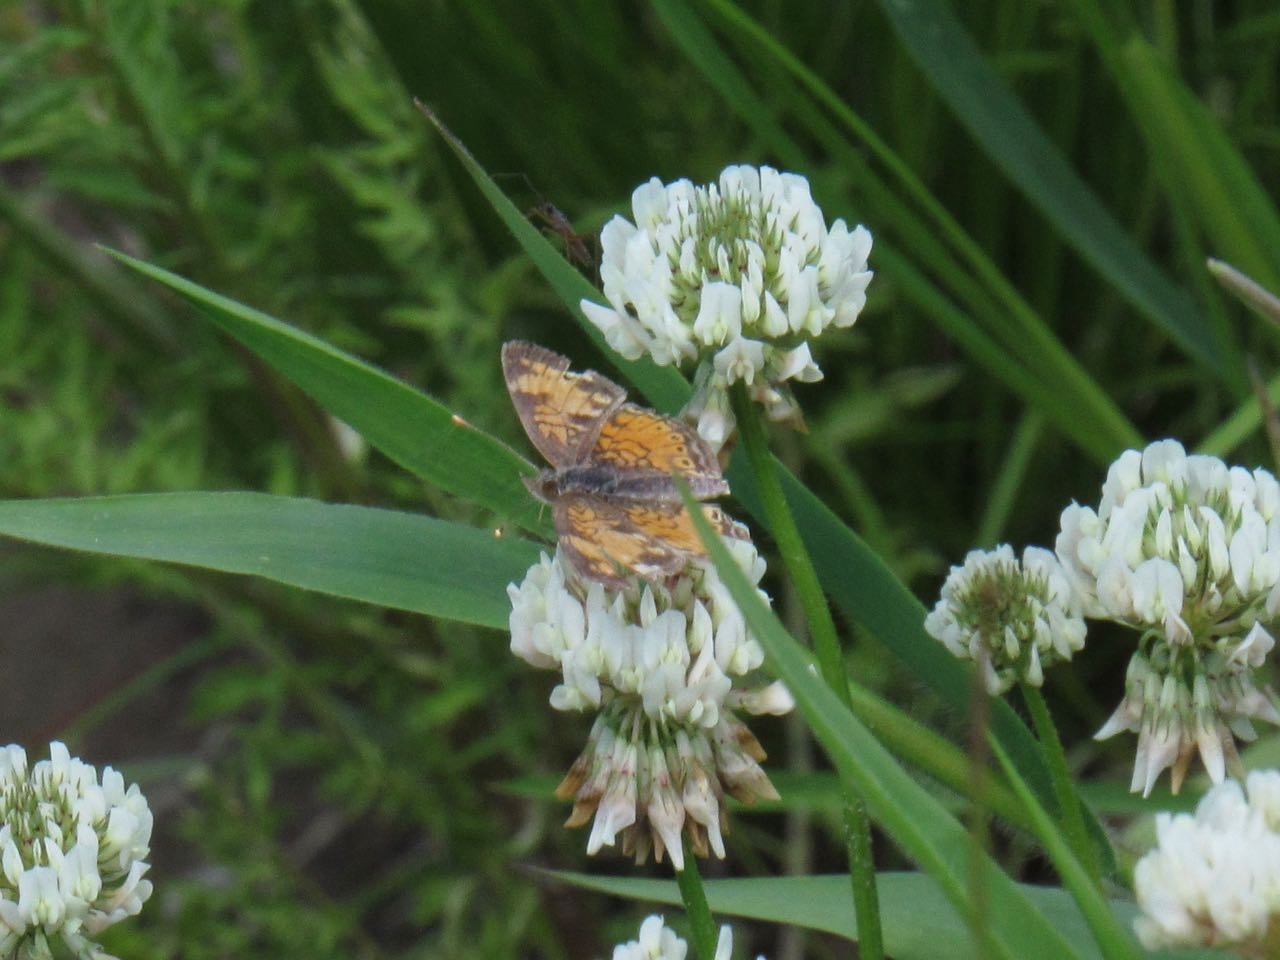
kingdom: Animalia
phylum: Arthropoda
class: Insecta
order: Lepidoptera
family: Nymphalidae
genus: Phyciodes
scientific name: Phyciodes tharos
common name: Pearl Crescent
